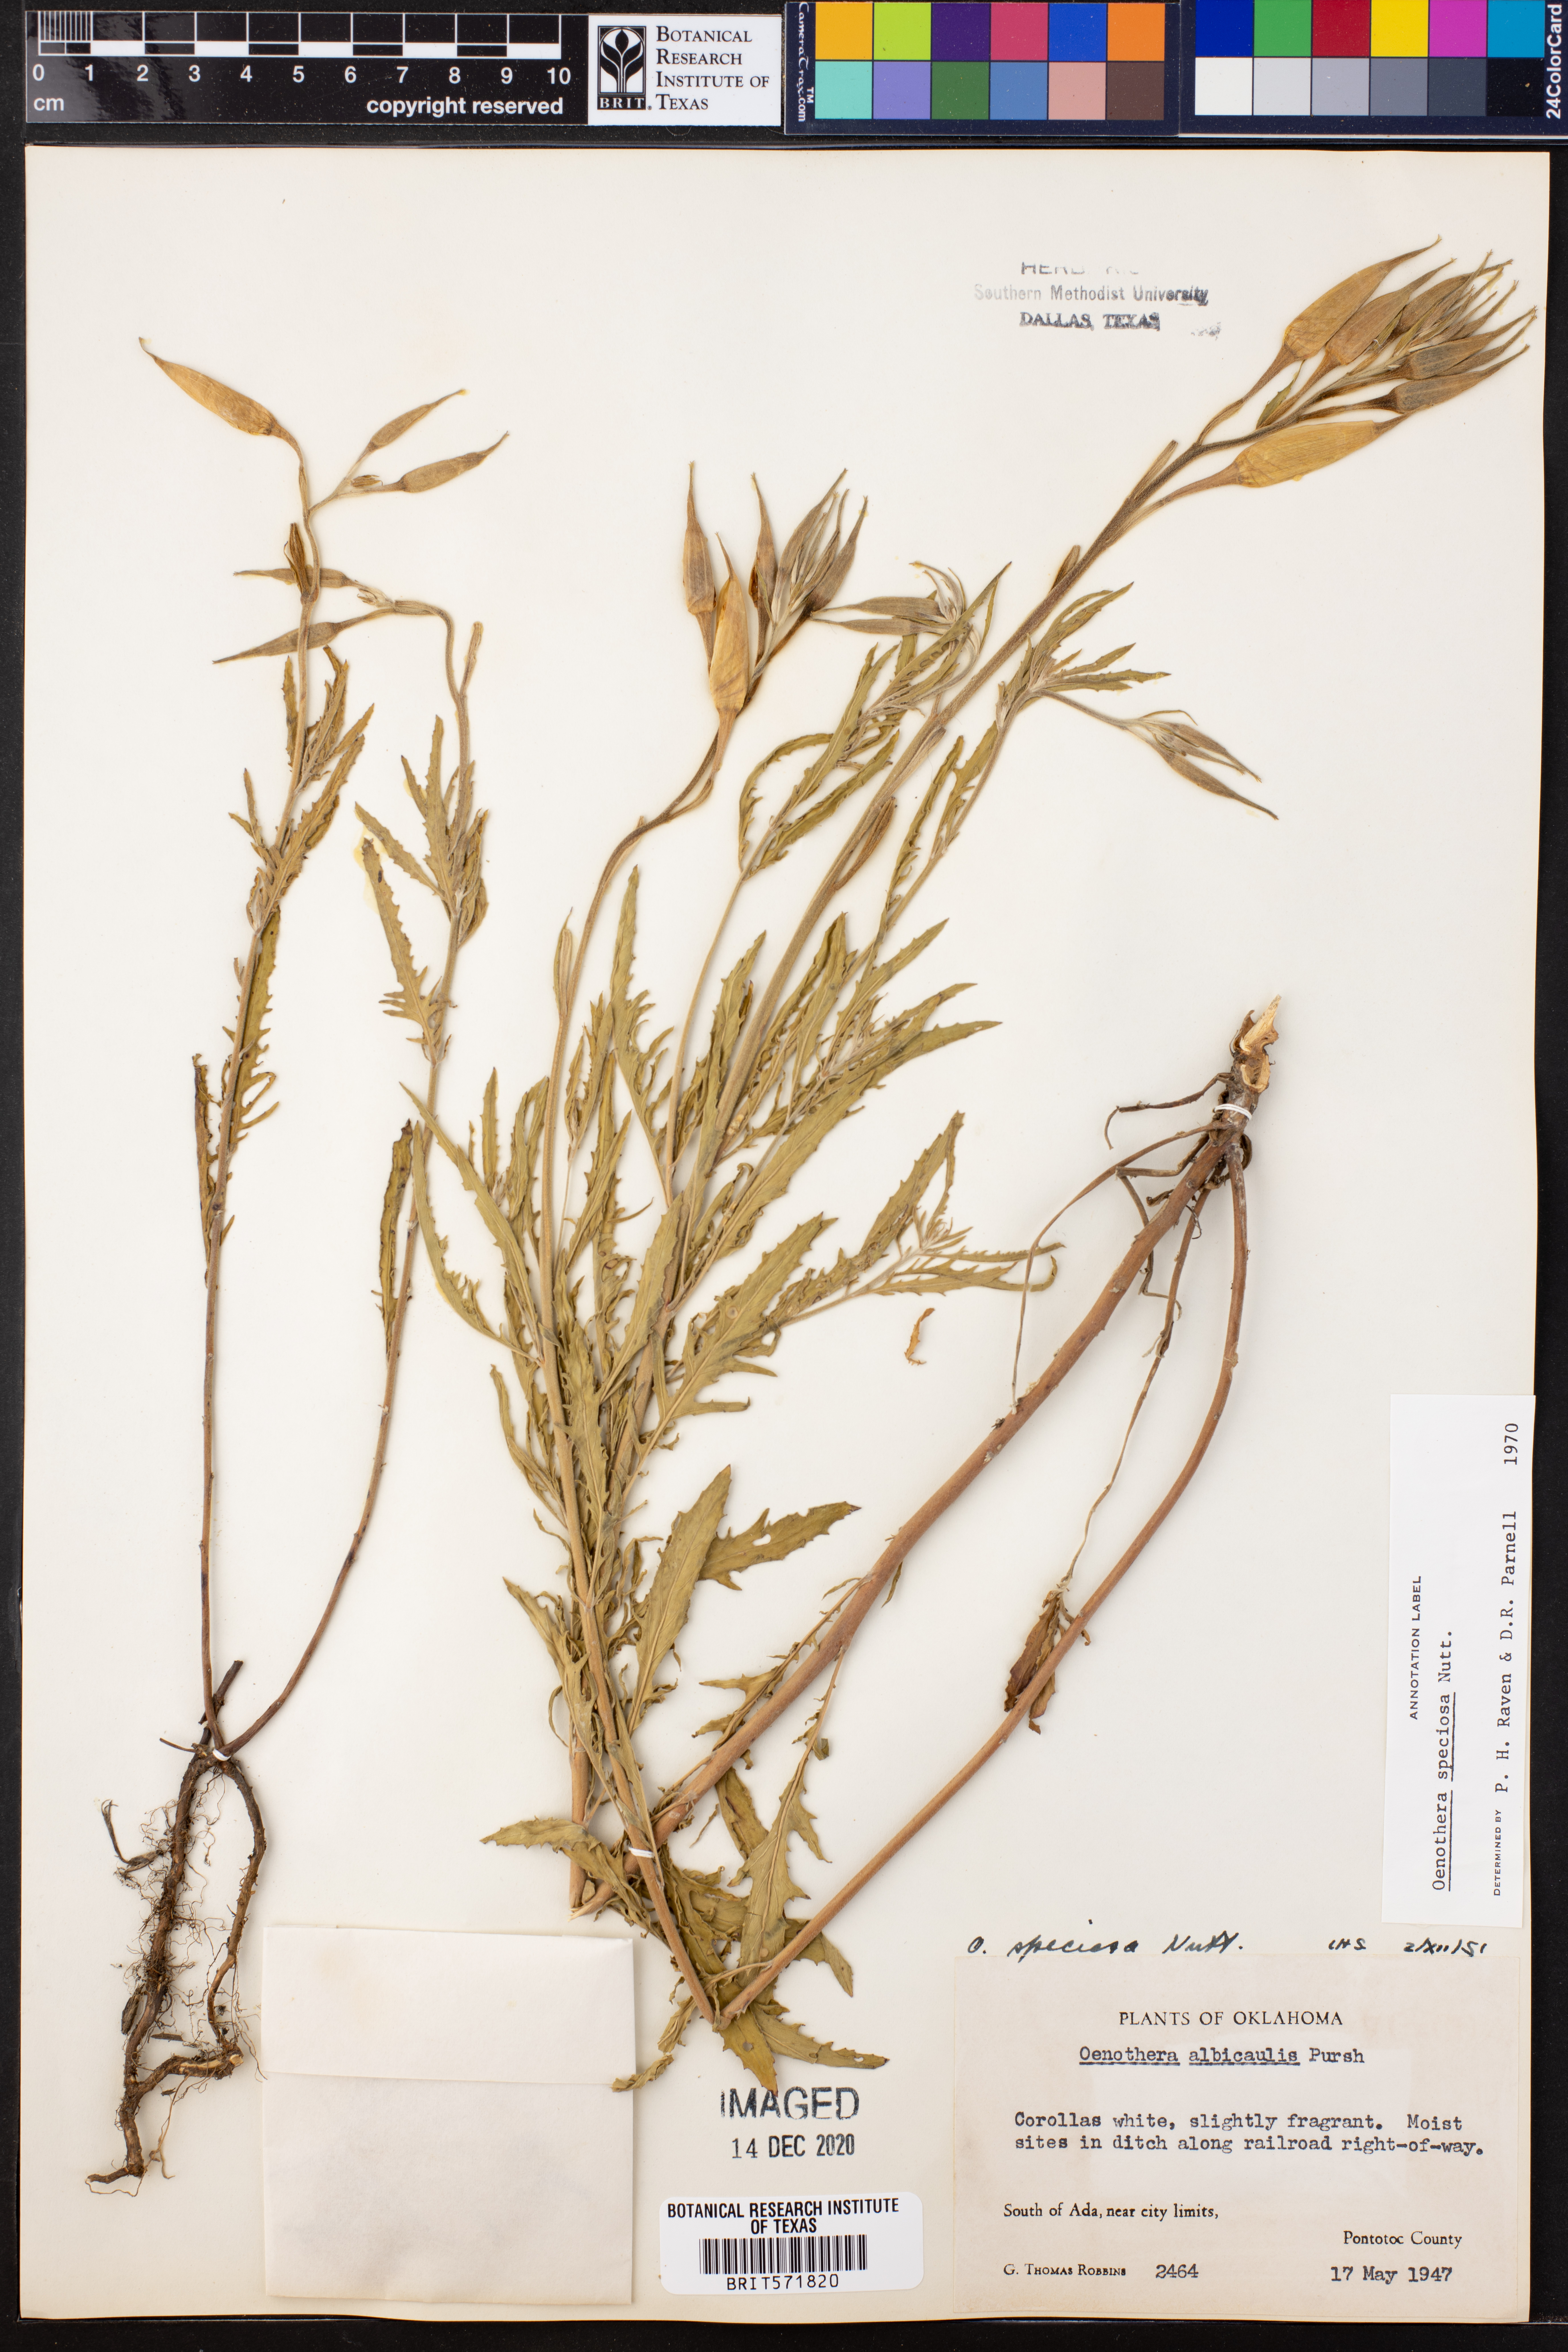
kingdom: Plantae
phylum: Tracheophyta
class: Magnoliopsida
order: Myrtales
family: Onagraceae
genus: Oenothera
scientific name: Oenothera speciosa
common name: White evening-primrose
